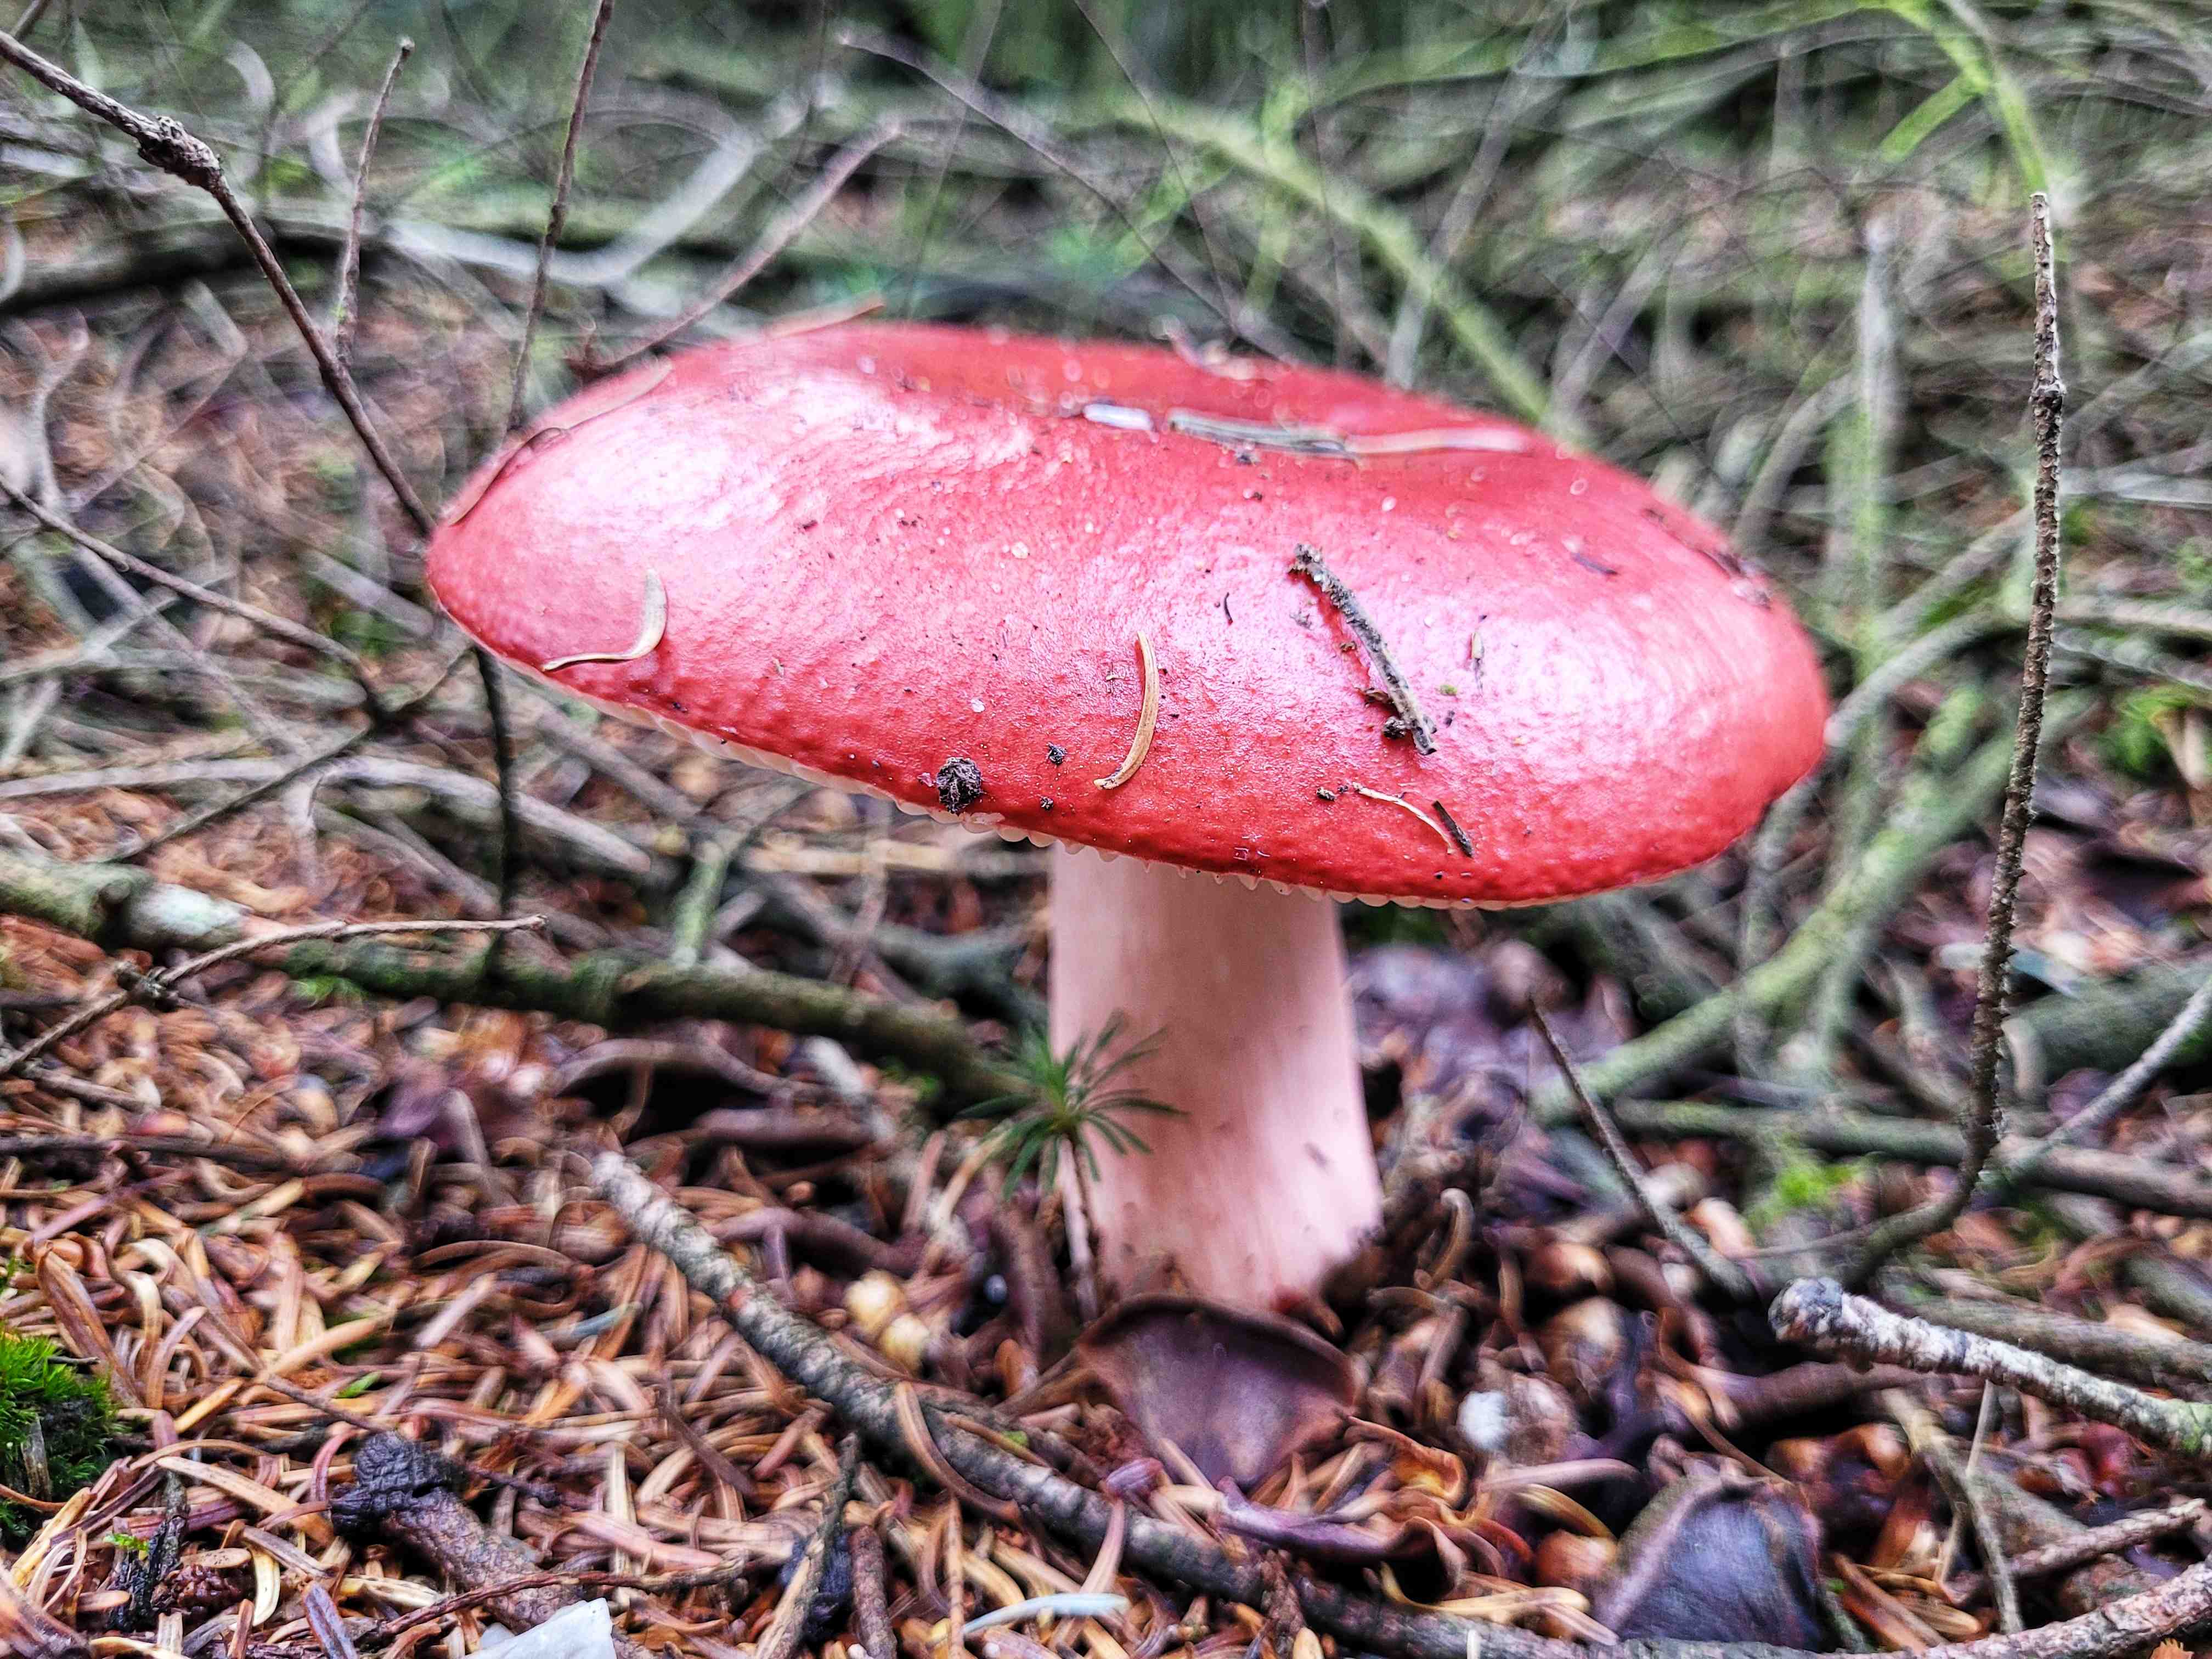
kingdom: Fungi
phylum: Basidiomycota
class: Agaricomycetes
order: Russulales
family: Russulaceae
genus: Russula
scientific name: Russula paludosa
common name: prægtig skørhat
